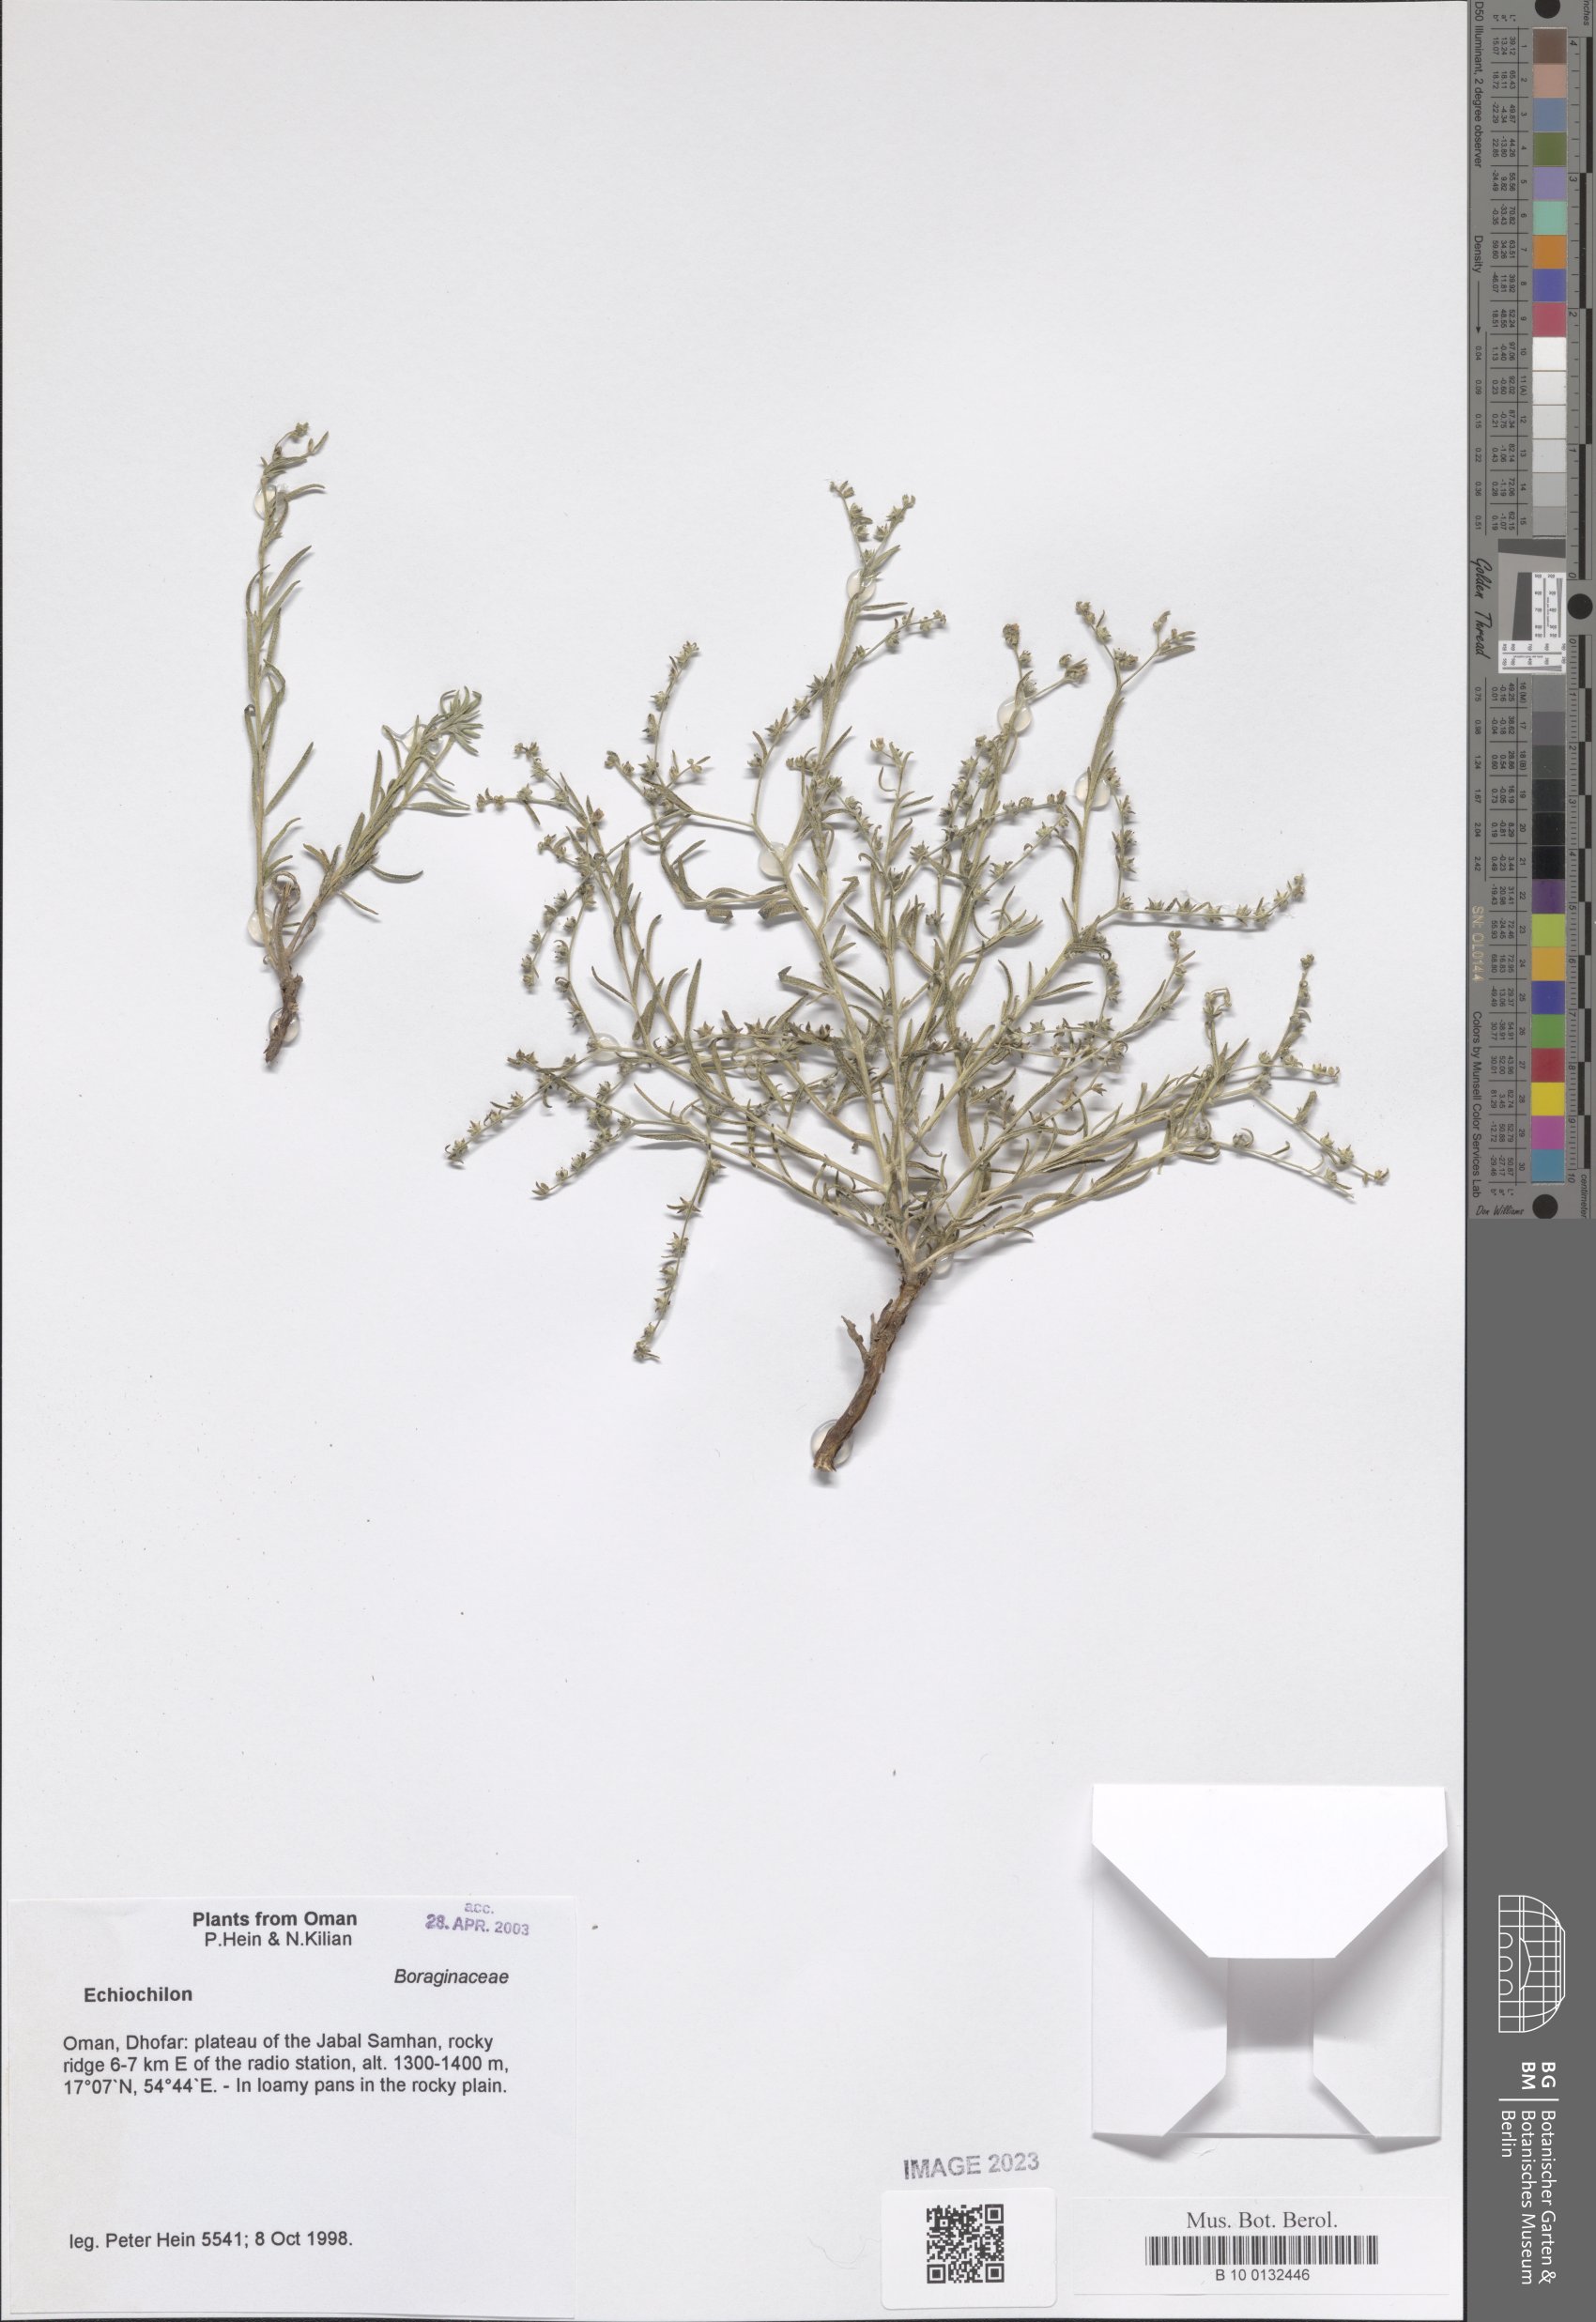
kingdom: Plantae
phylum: Tracheophyta
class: Magnoliopsida
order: Boraginales
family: Boraginaceae
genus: Echiochilon
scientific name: Echiochilon
